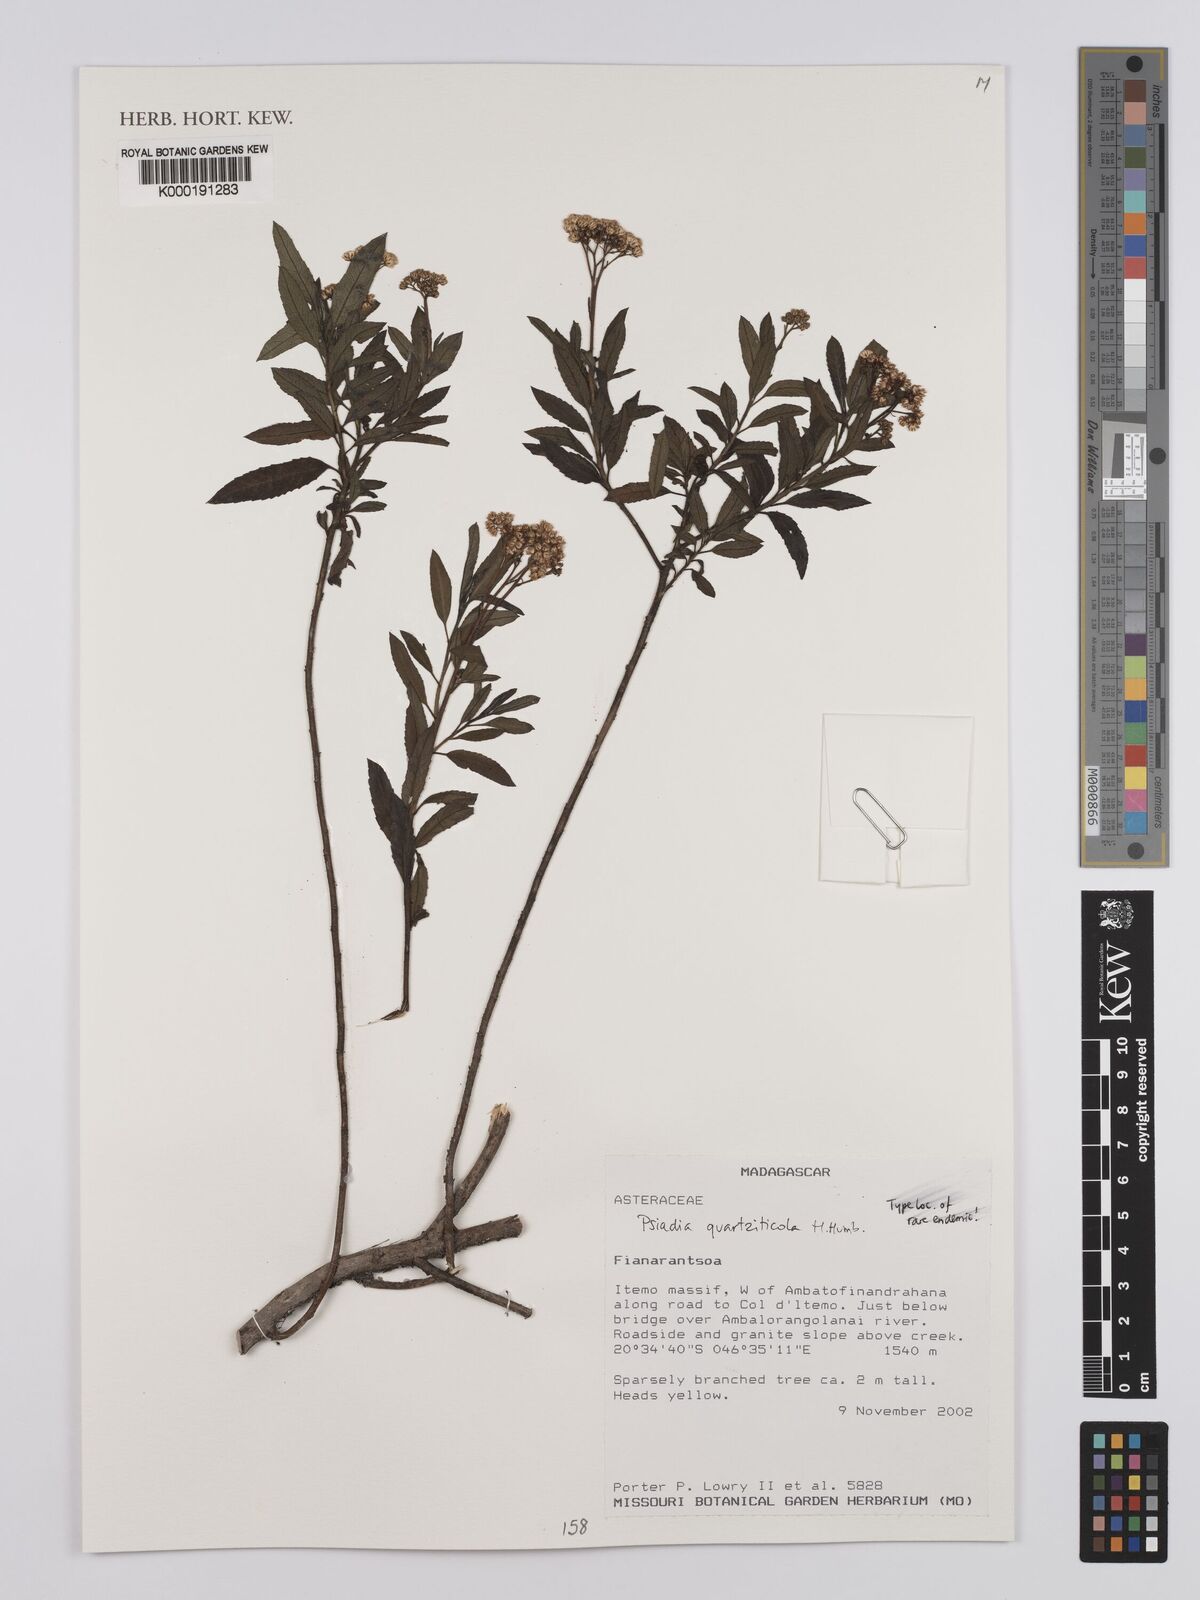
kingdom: Plantae
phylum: Tracheophyta
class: Magnoliopsida
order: Asterales
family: Asteraceae
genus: Psiadia
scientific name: Psiadia quartziticola
